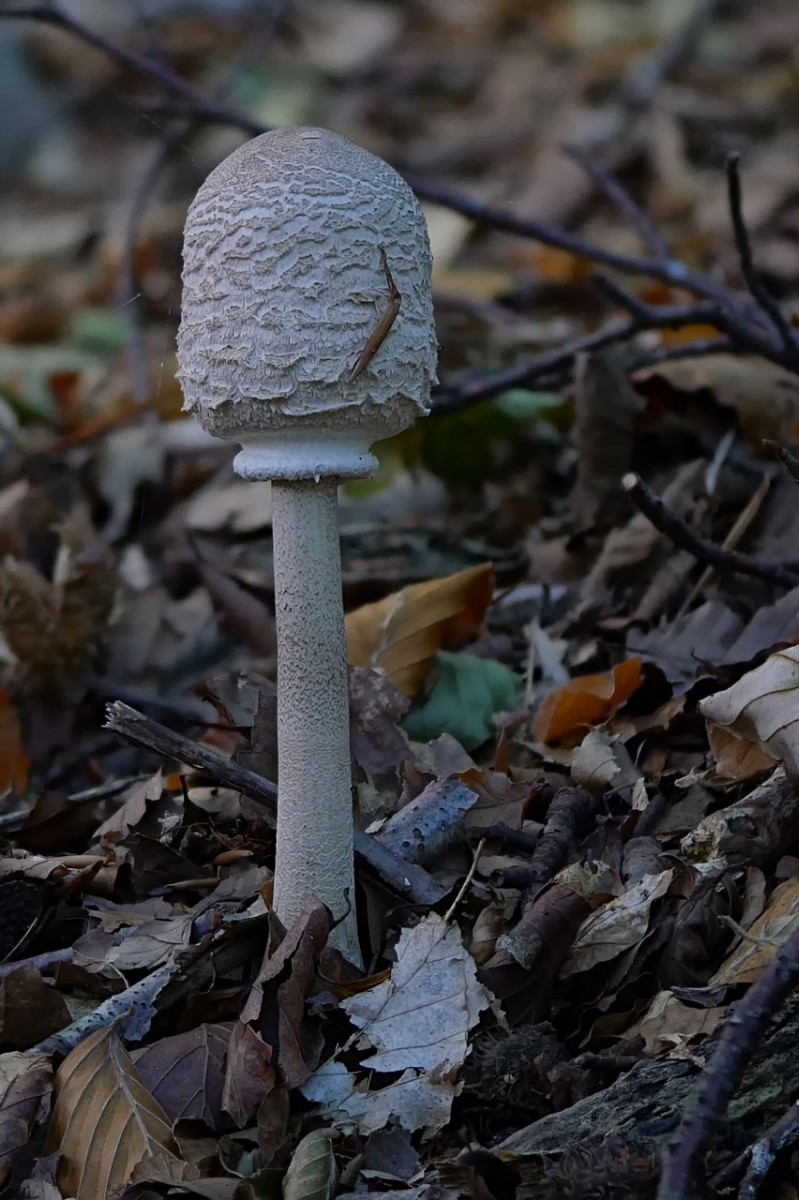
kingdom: Fungi
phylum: Basidiomycota
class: Agaricomycetes
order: Agaricales
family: Agaricaceae
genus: Chlorophyllum
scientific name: Chlorophyllum olivieri
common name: almindelig rabarberhat
